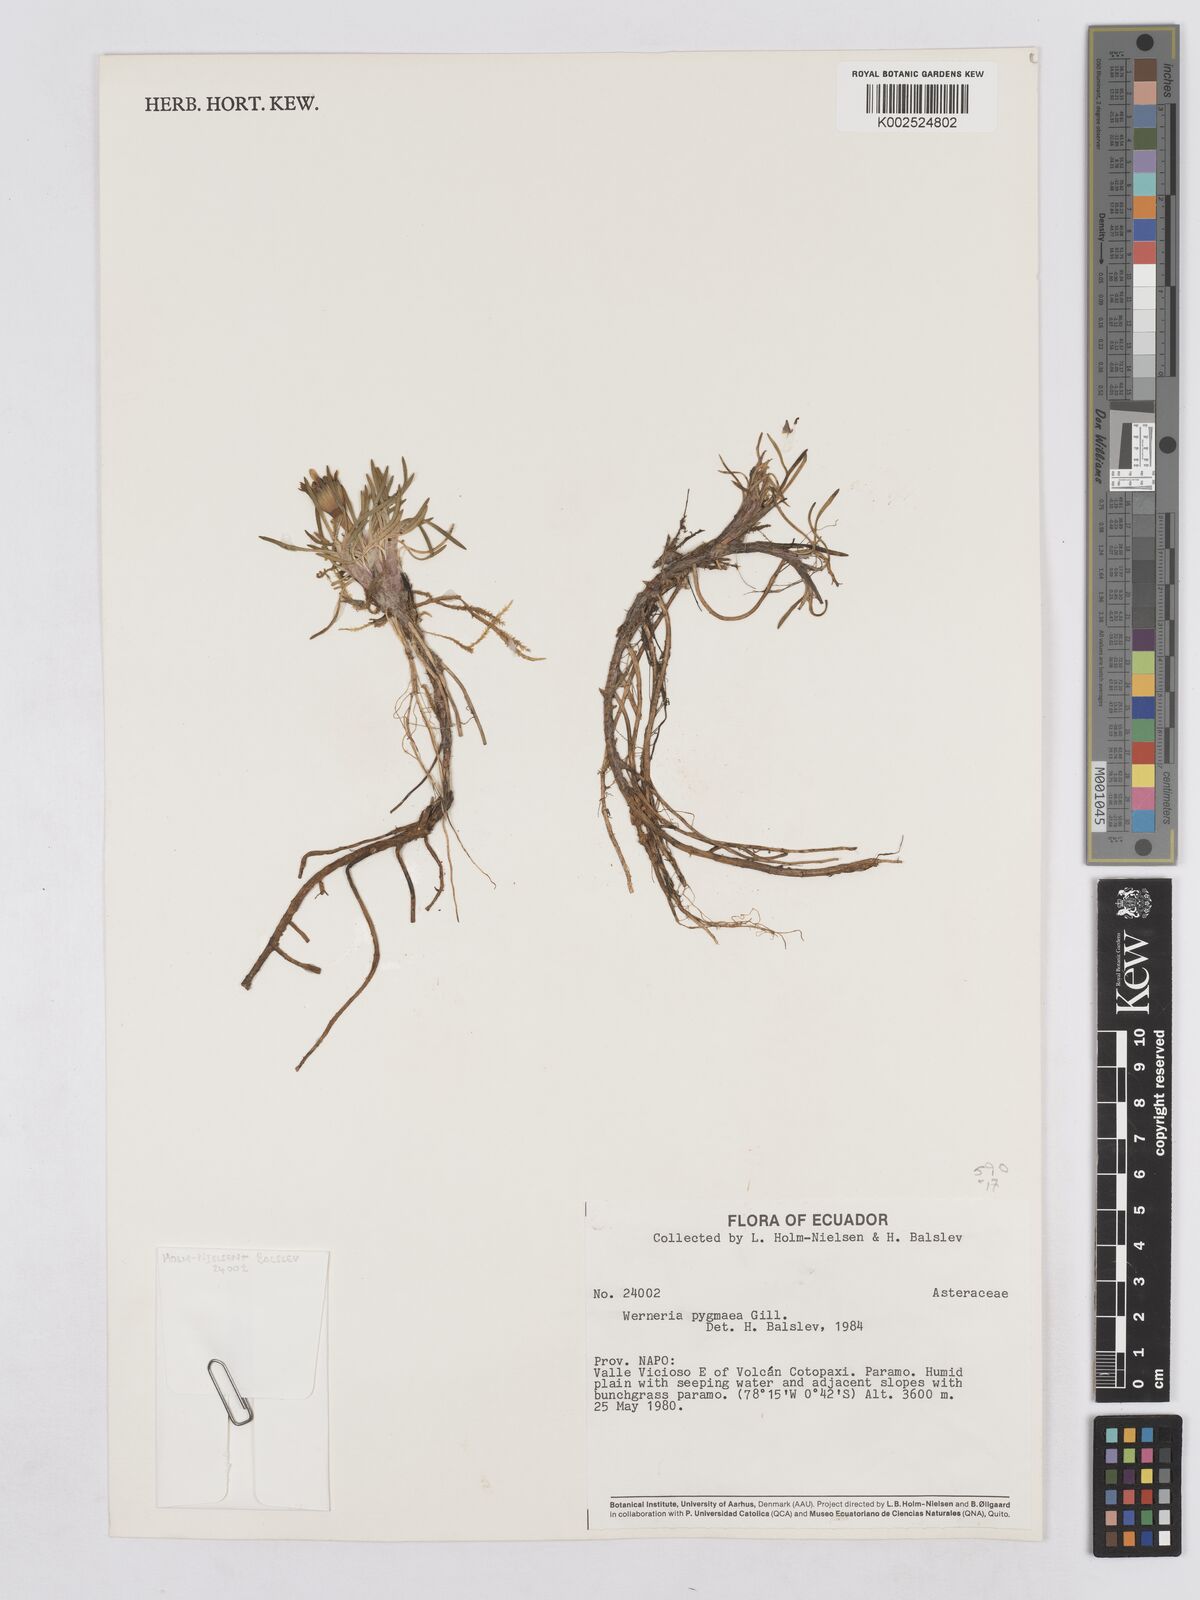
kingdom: Plantae
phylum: Tracheophyta
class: Magnoliopsida
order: Asterales
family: Asteraceae
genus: Rockhausenia
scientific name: Rockhausenia pygmaea
